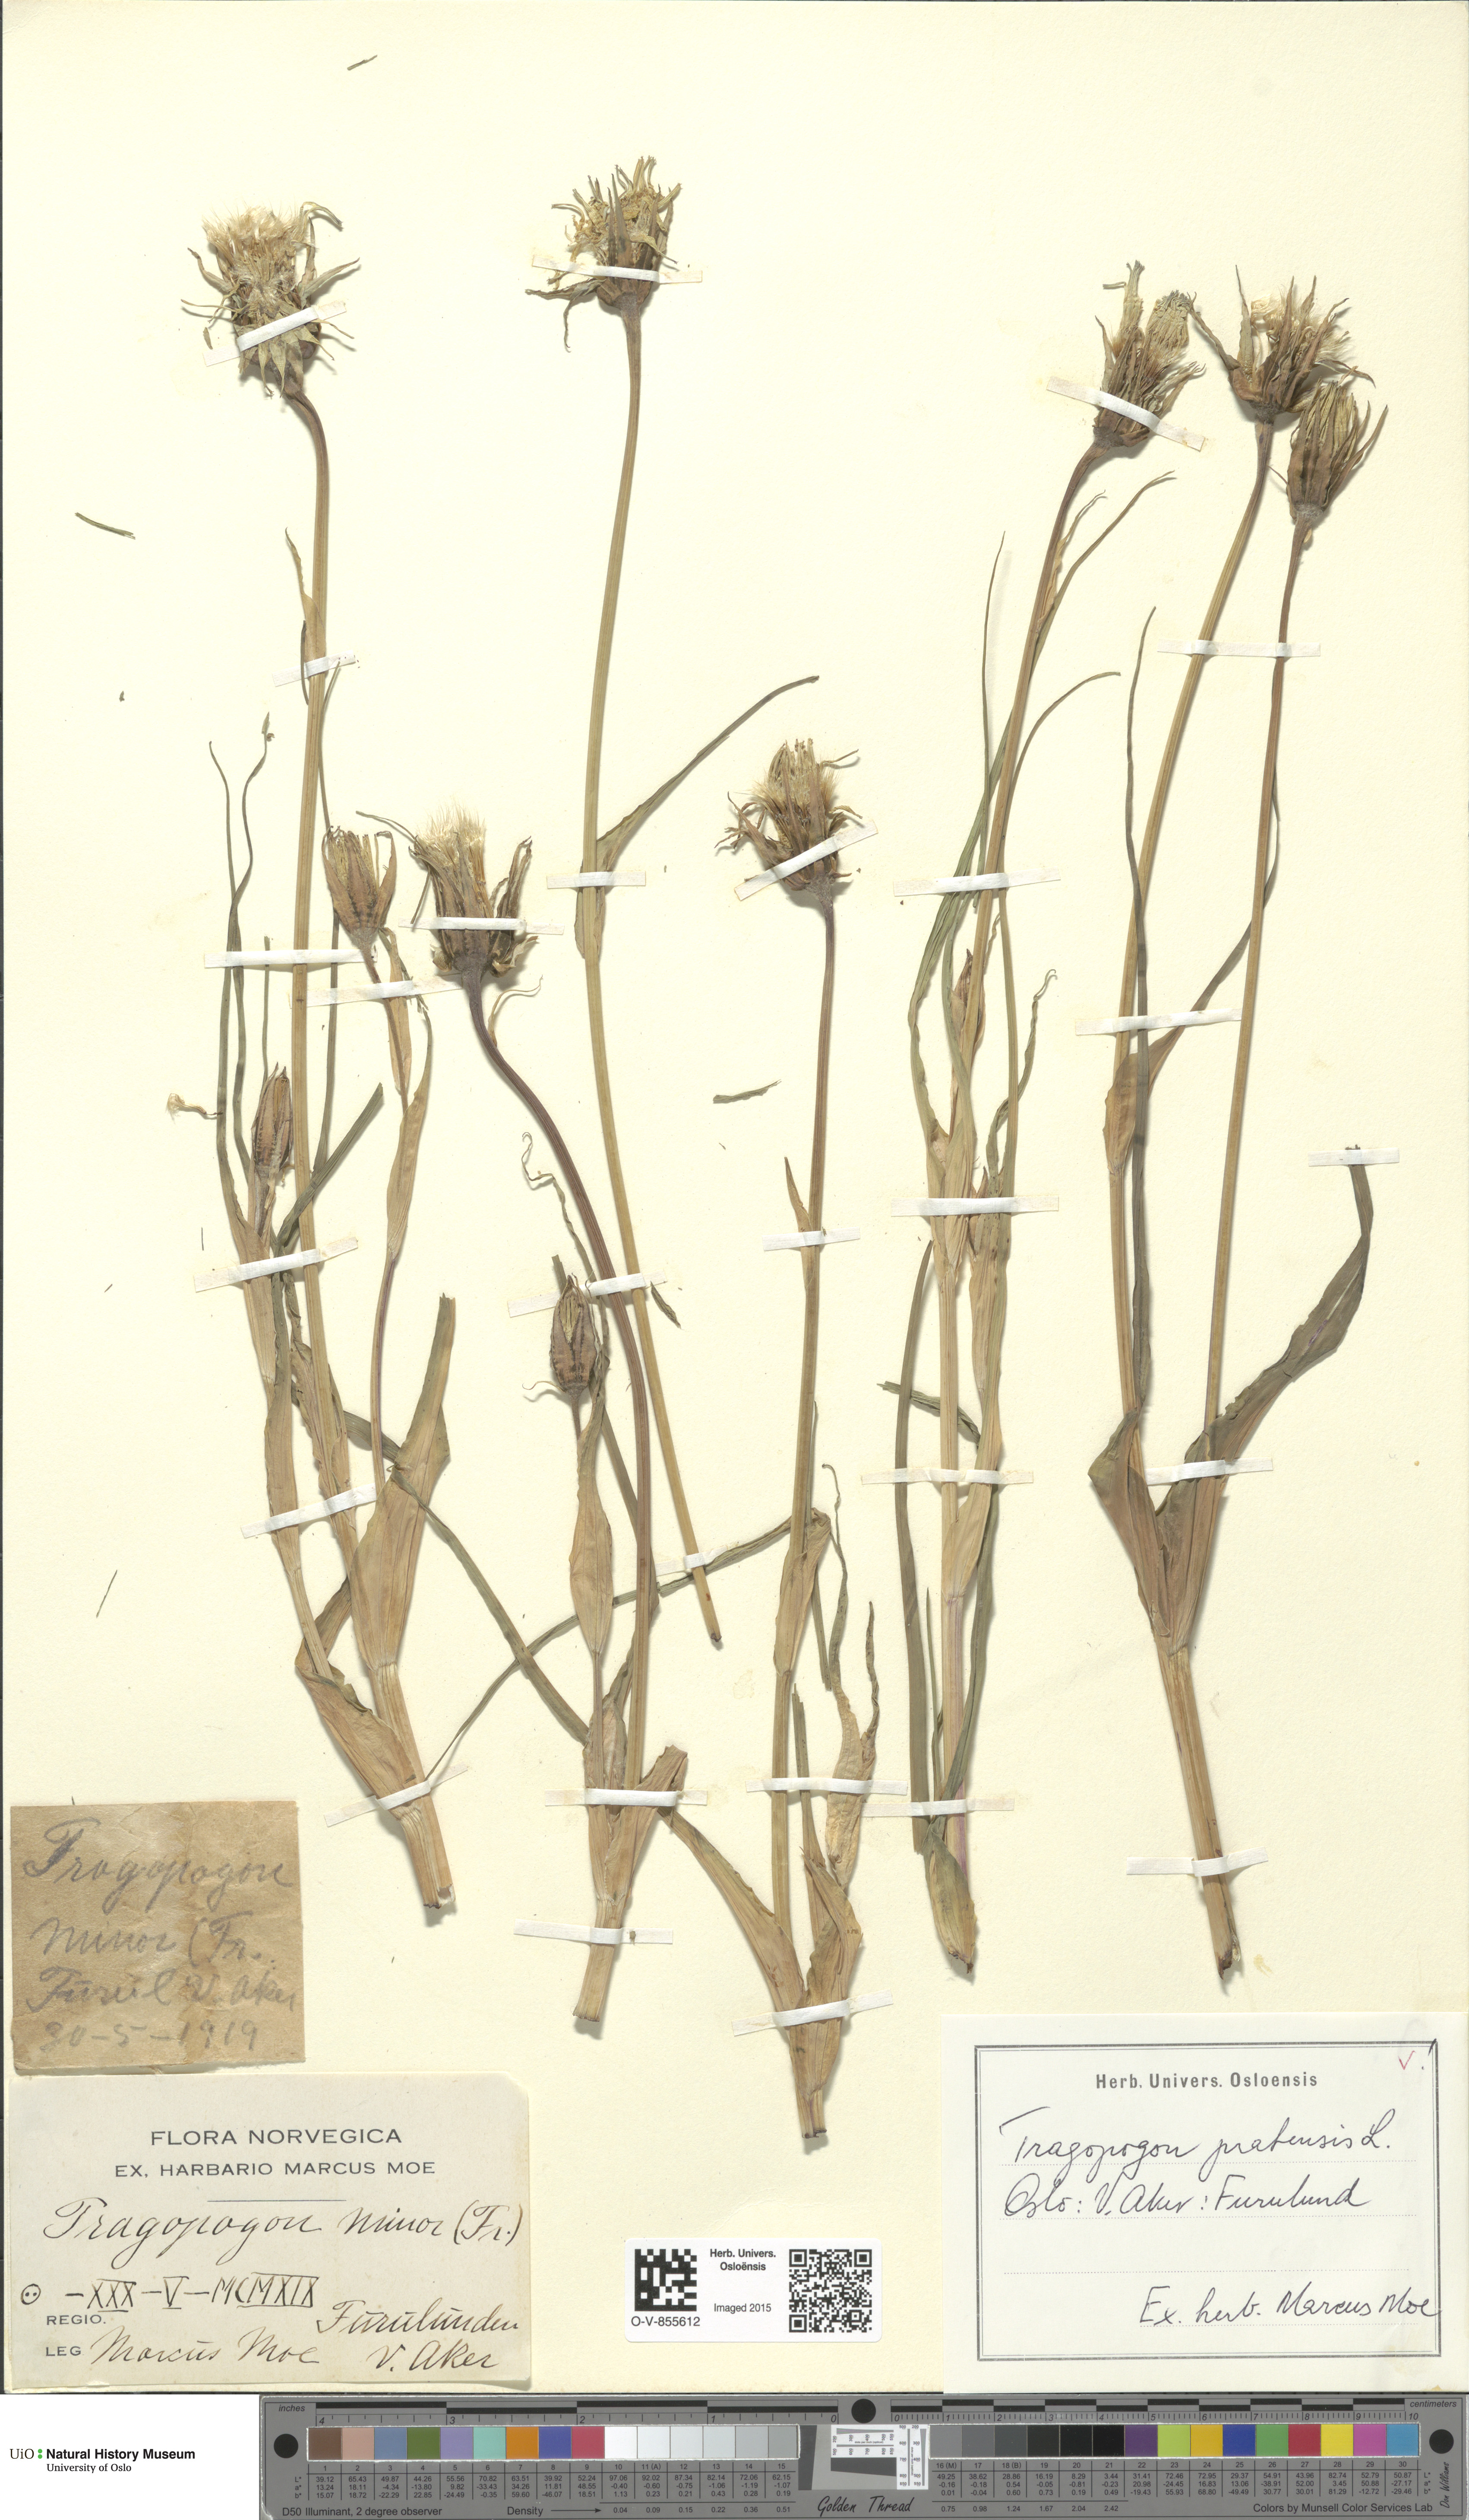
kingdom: Plantae
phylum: Tracheophyta
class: Magnoliopsida
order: Asterales
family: Asteraceae
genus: Tragopogon
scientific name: Tragopogon pratensis
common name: Goat's-beard
